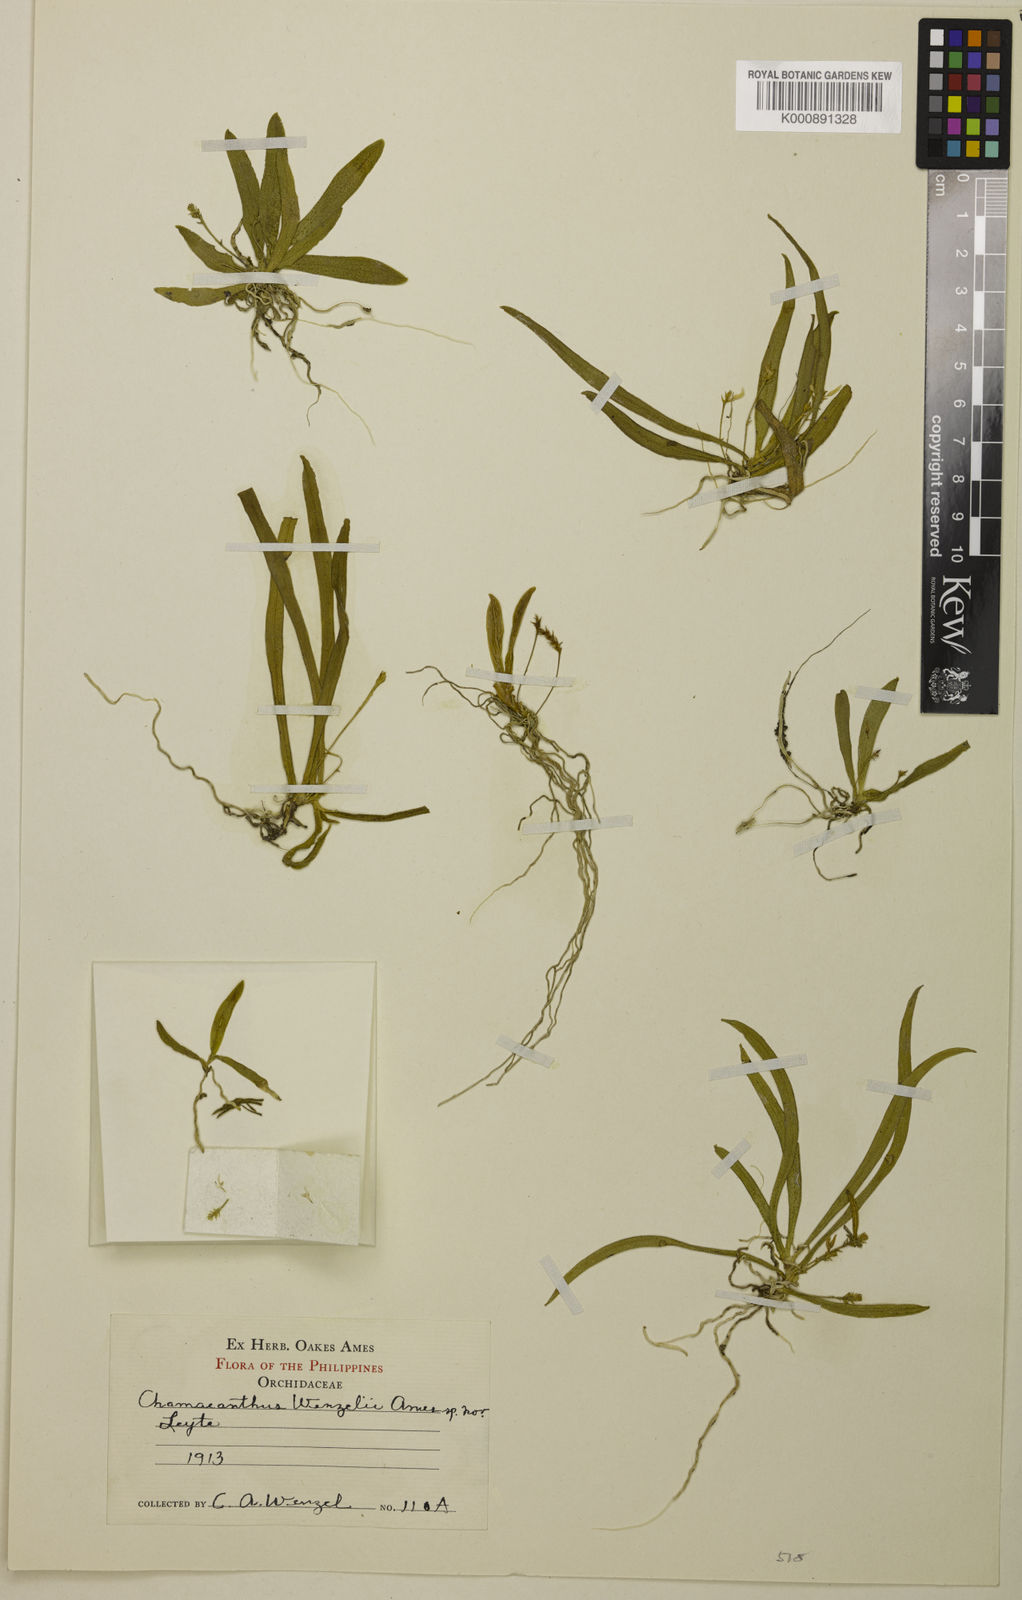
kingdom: Plantae
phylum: Tracheophyta
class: Liliopsida
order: Asparagales
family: Orchidaceae
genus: Chamaeanthus
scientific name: Chamaeanthus wenzelii
